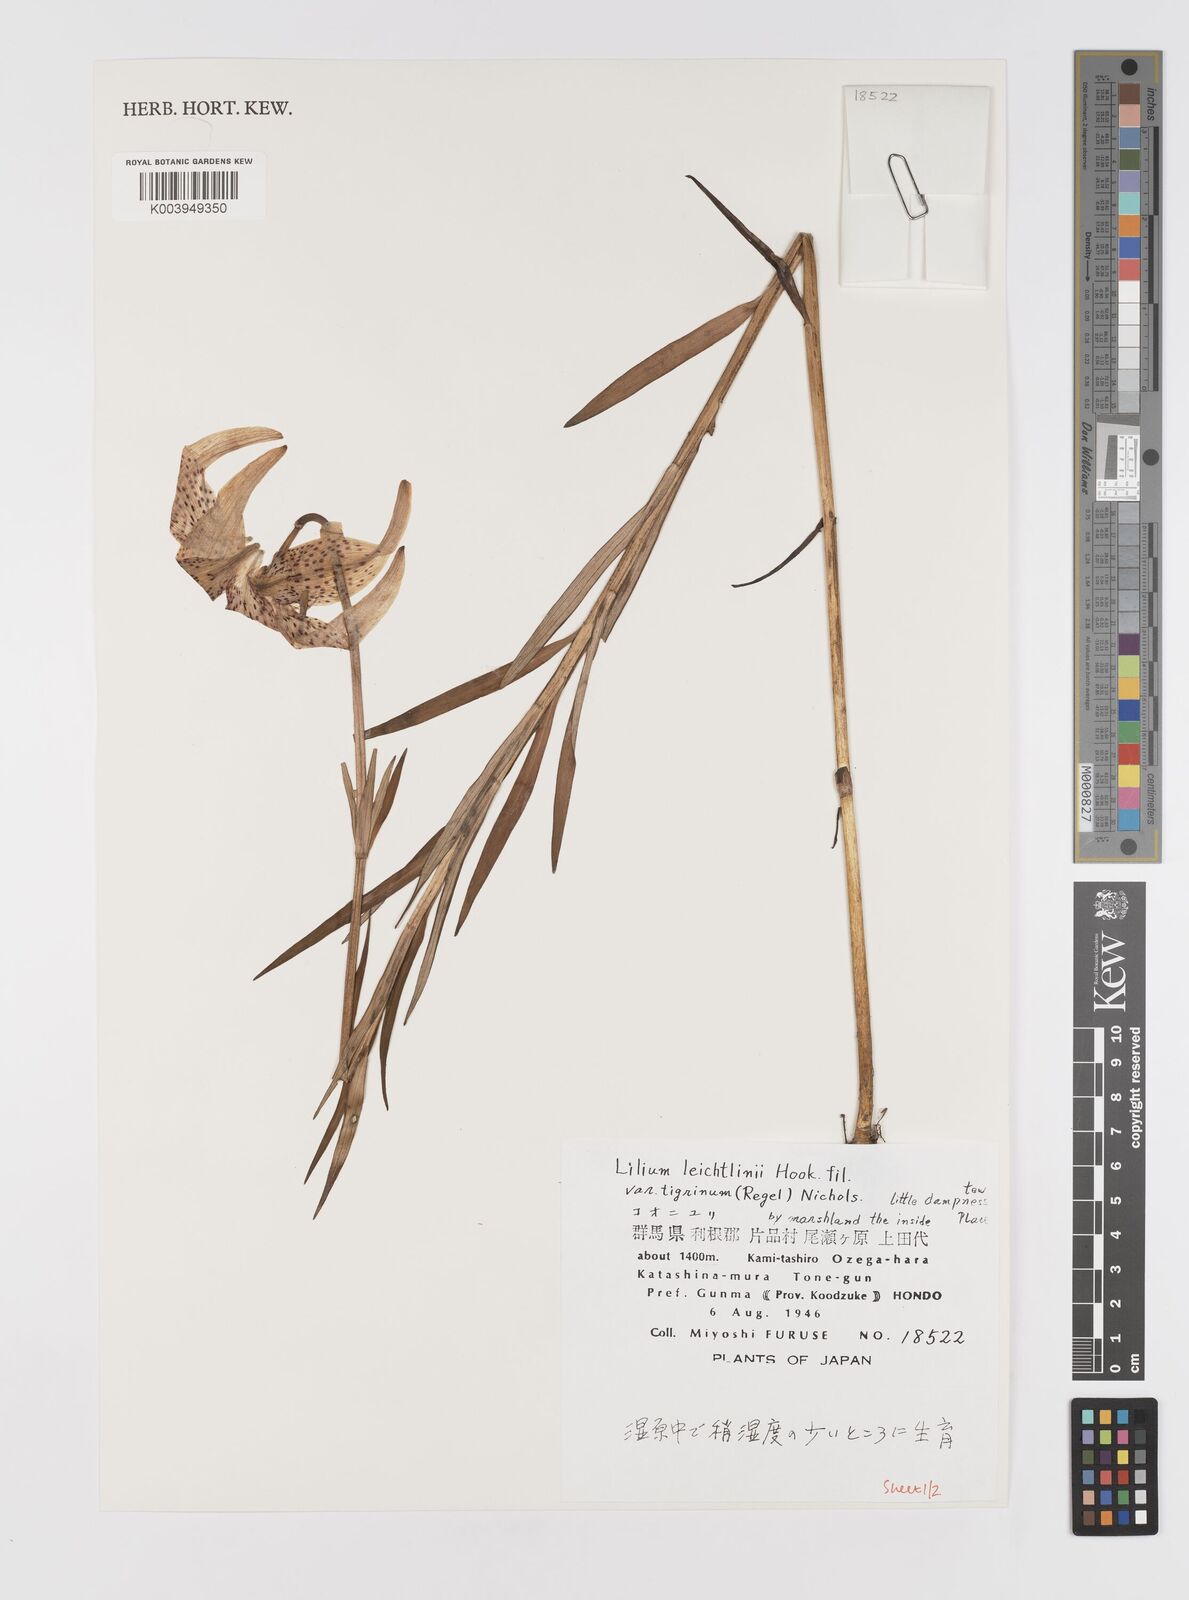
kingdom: Plantae
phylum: Tracheophyta
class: Liliopsida
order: Liliales
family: Liliaceae
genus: Lilium
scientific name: Lilium leichtlinii
